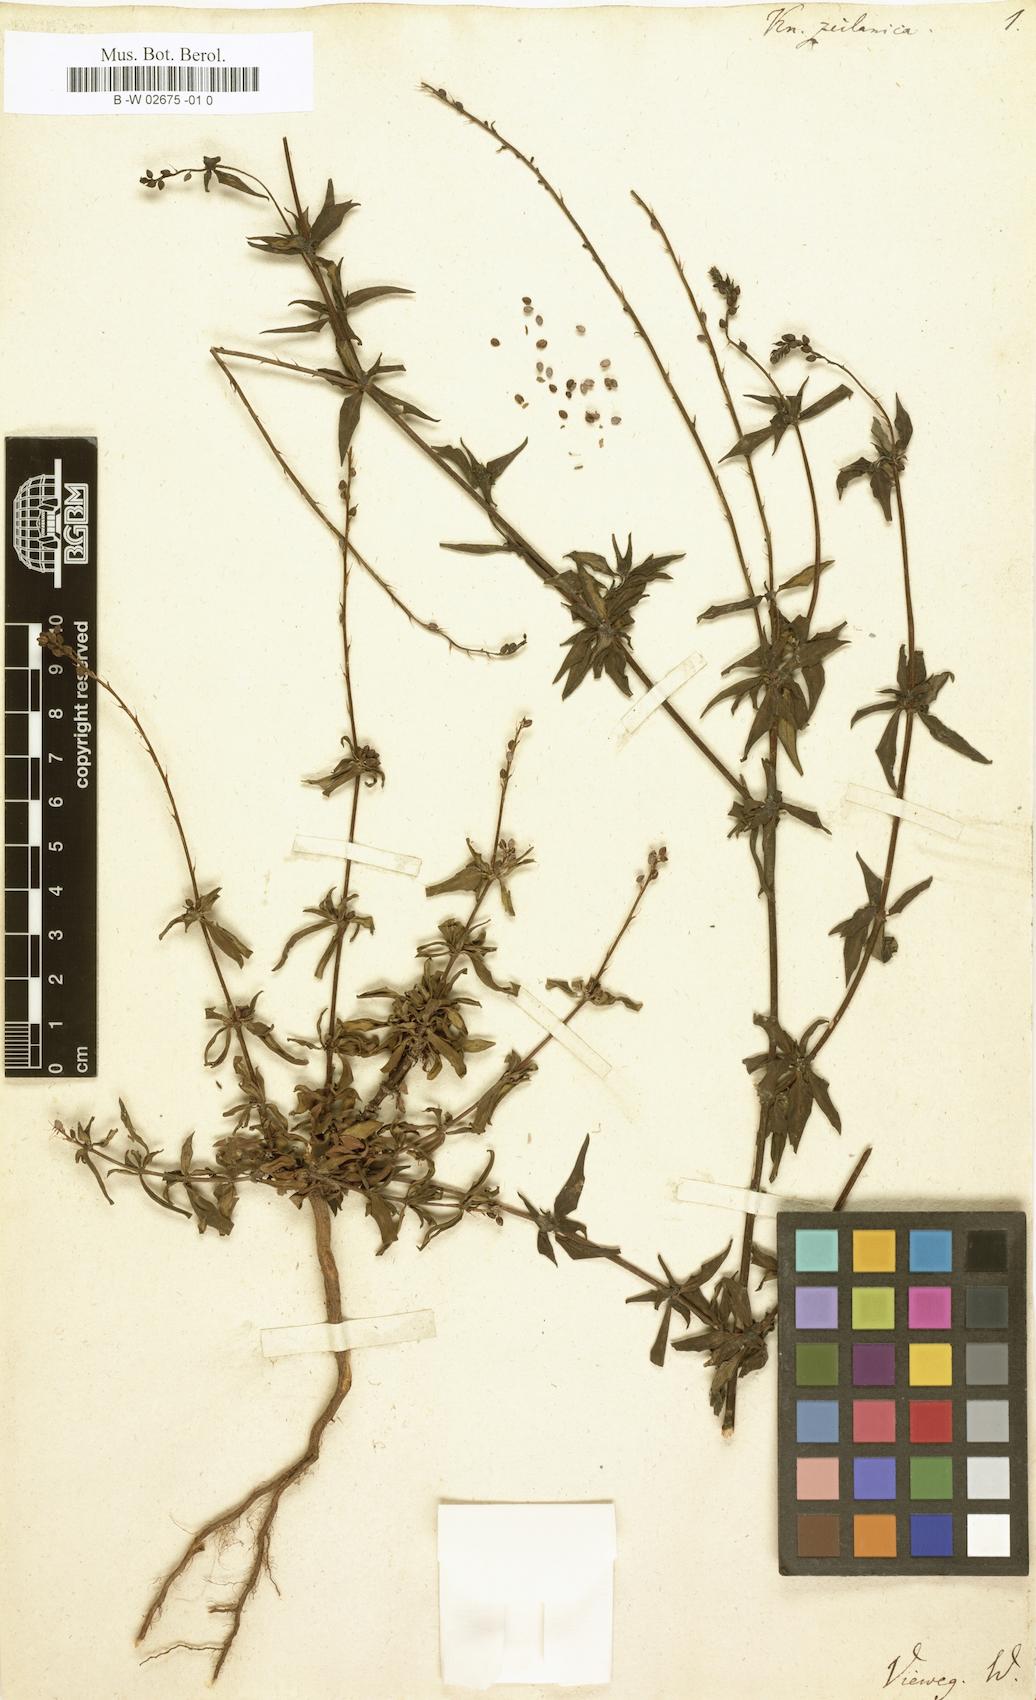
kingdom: Plantae
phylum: Tracheophyta
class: Magnoliopsida
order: Gentianales
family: Rubiaceae
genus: Knoxia
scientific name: Knoxia zeylanica
